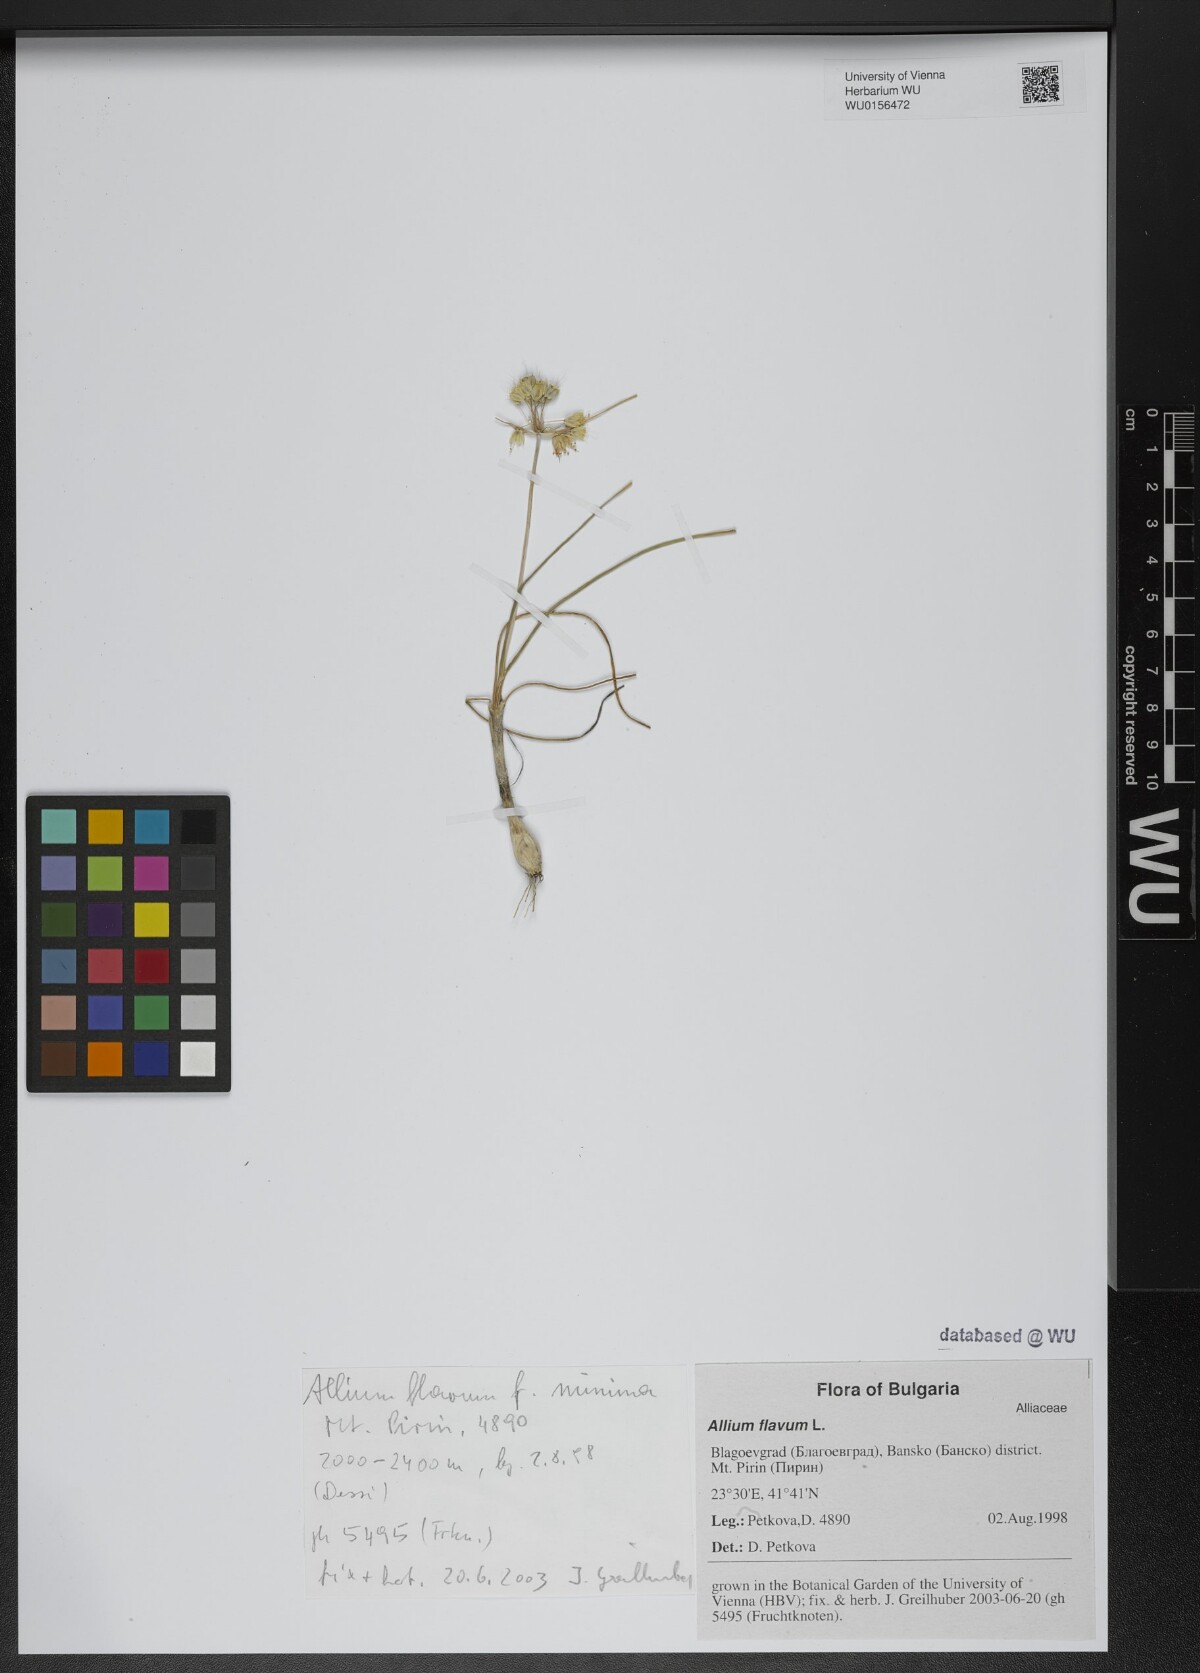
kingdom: Plantae
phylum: Tracheophyta
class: Liliopsida
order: Asparagales
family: Amaryllidaceae
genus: Allium
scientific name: Allium flavum
